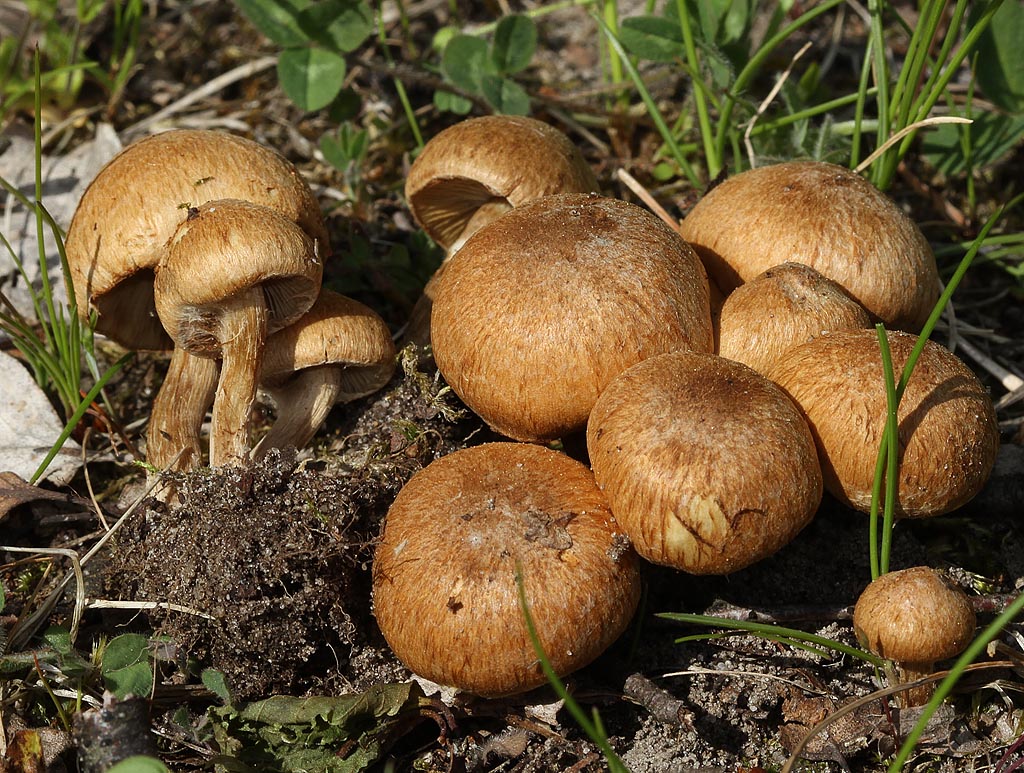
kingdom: Fungi
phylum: Basidiomycota
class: Agaricomycetes
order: Agaricales
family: Inocybaceae
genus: Inocybe
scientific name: Inocybe dulcamara
